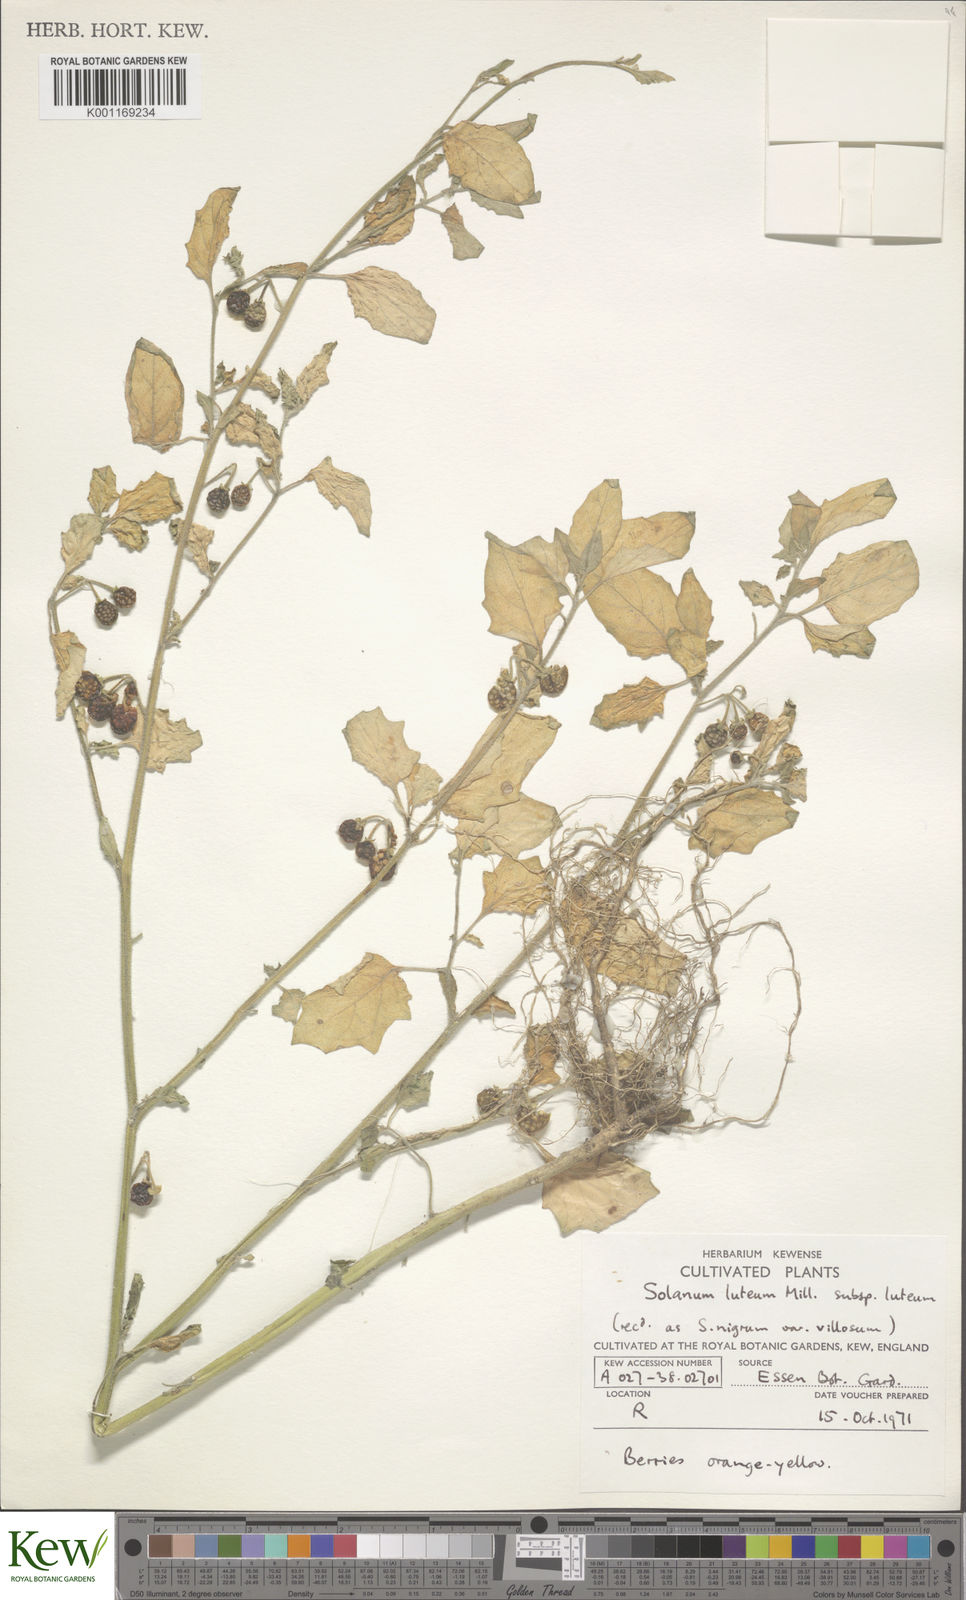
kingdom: Plantae
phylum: Tracheophyta
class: Magnoliopsida
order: Solanales
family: Solanaceae
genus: Solanum
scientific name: Solanum villosum
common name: Red nightshade
